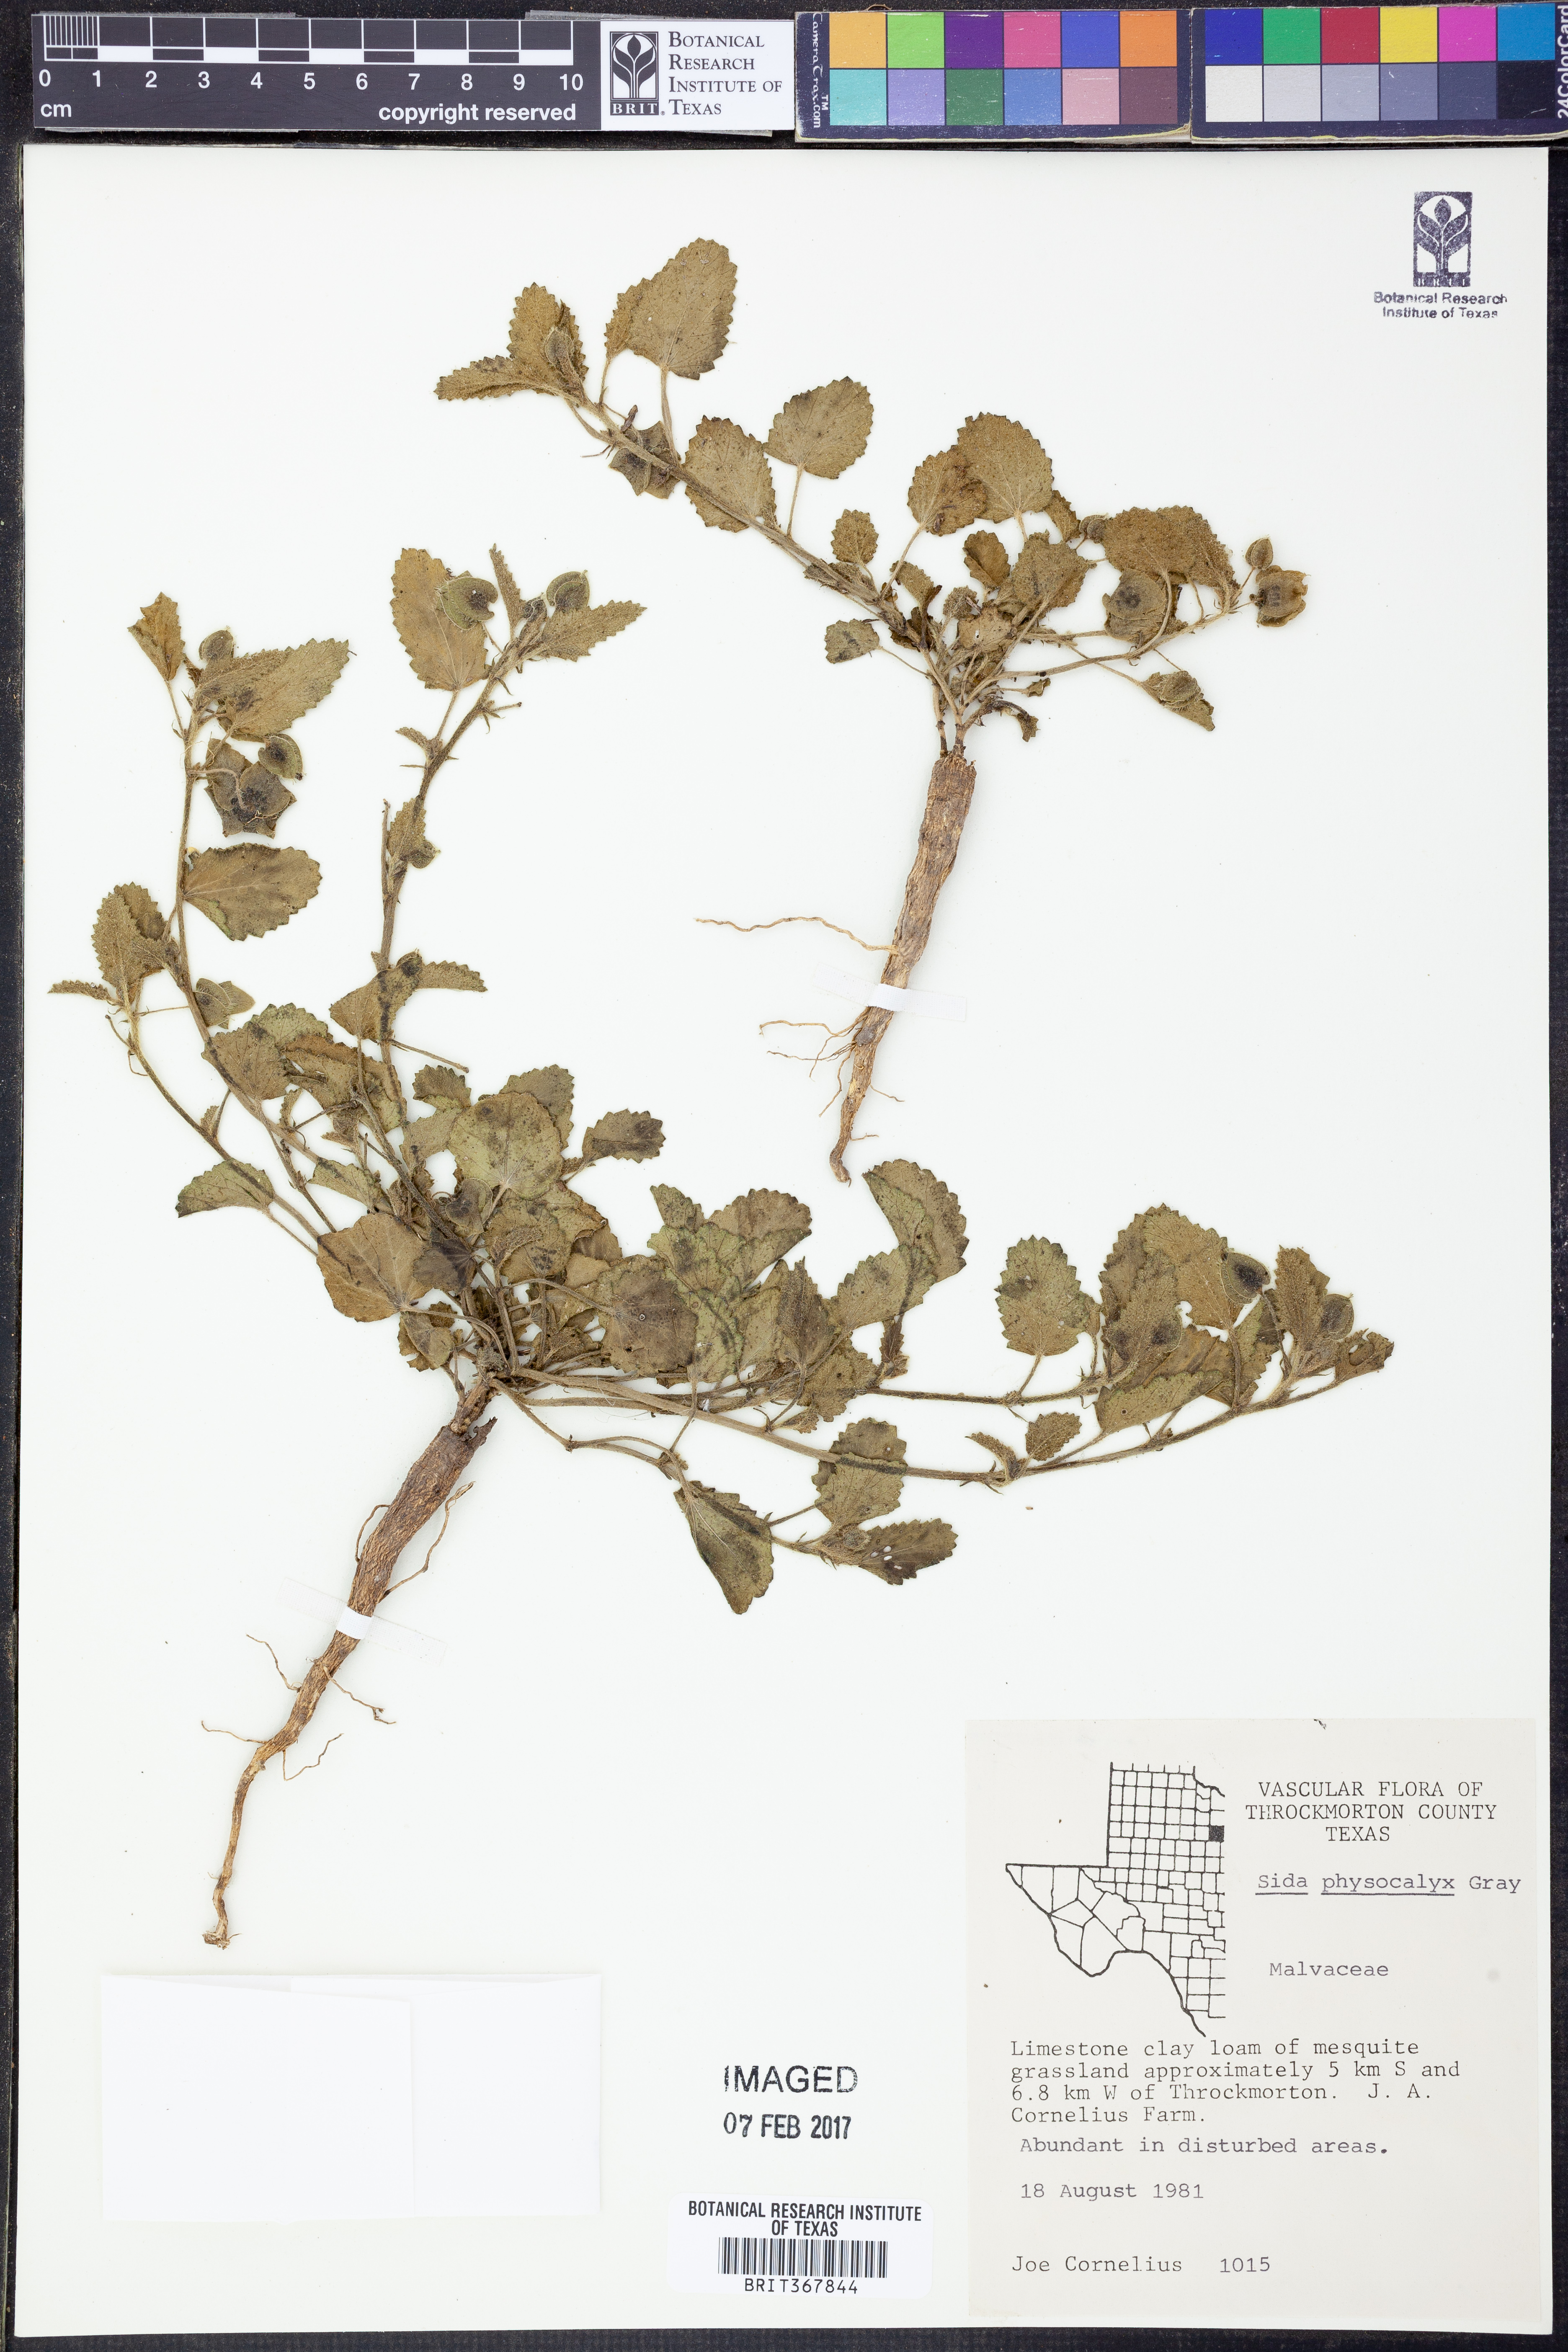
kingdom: Plantae
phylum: Tracheophyta
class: Magnoliopsida
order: Malvales
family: Malvaceae
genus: Rhynchosida
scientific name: Rhynchosida physocalyx
